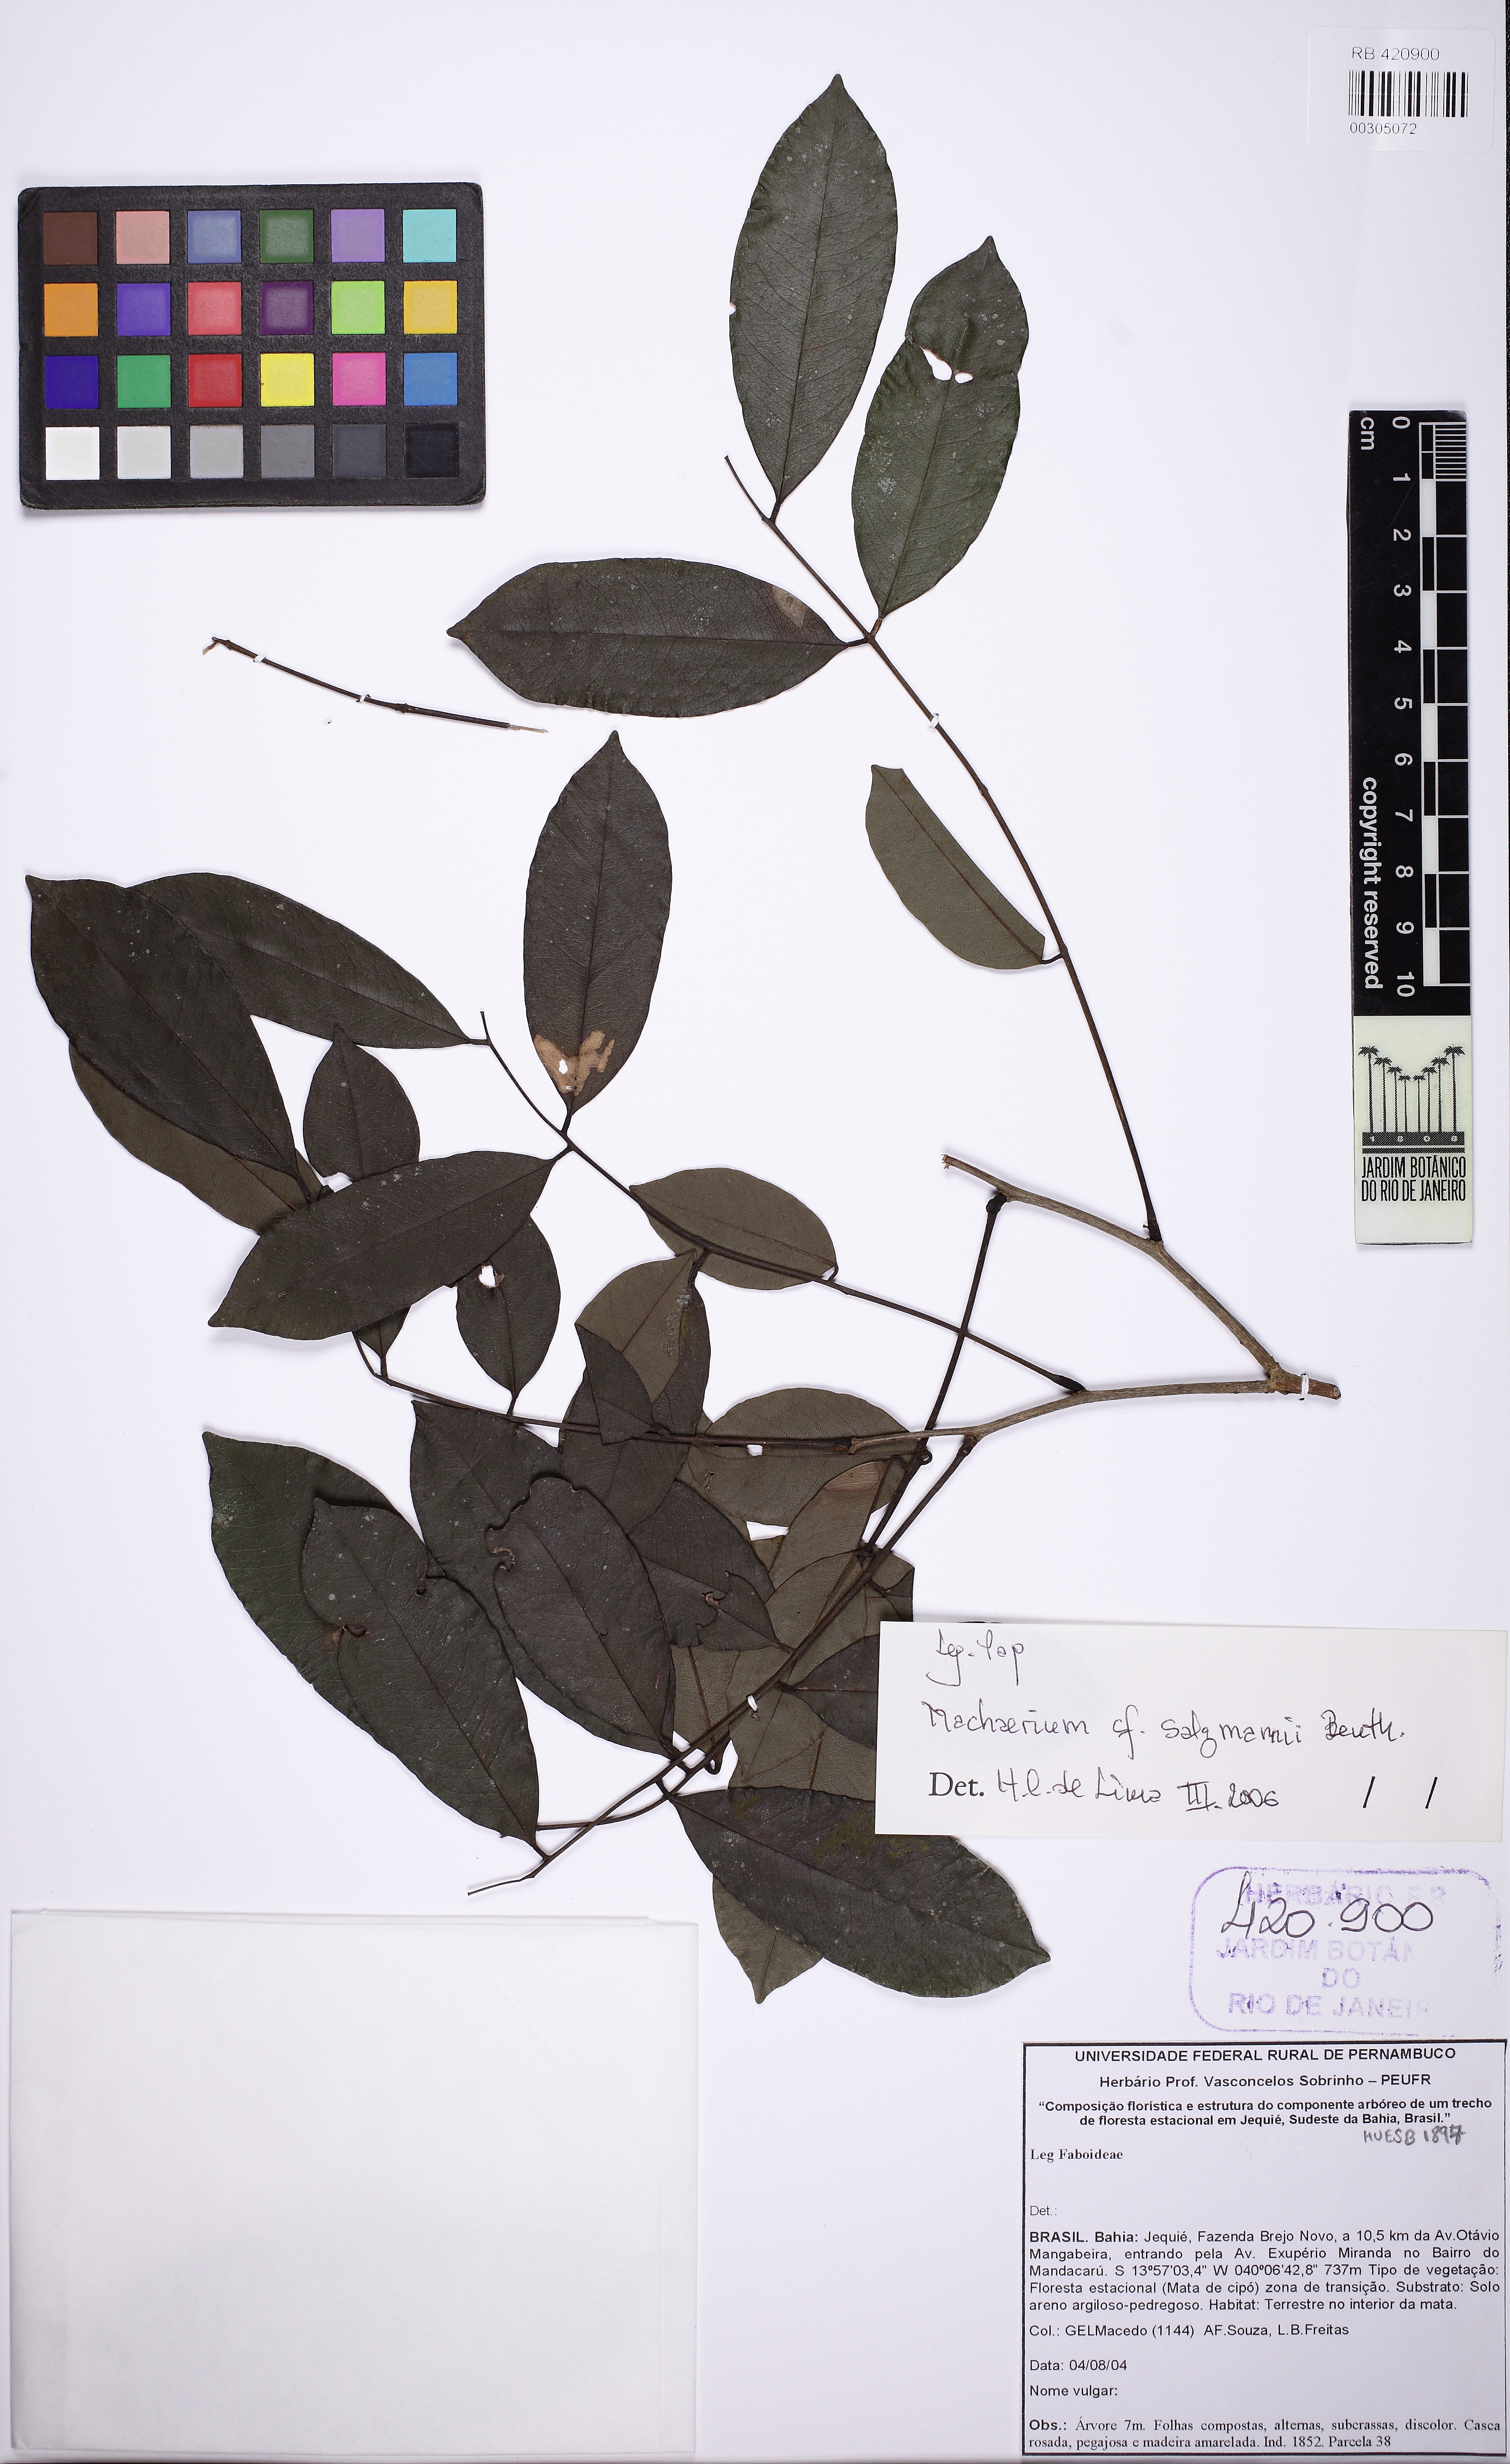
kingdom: Plantae
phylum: Tracheophyta
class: Magnoliopsida
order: Fabales
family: Fabaceae
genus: Machaerium
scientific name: Machaerium salzmannii
